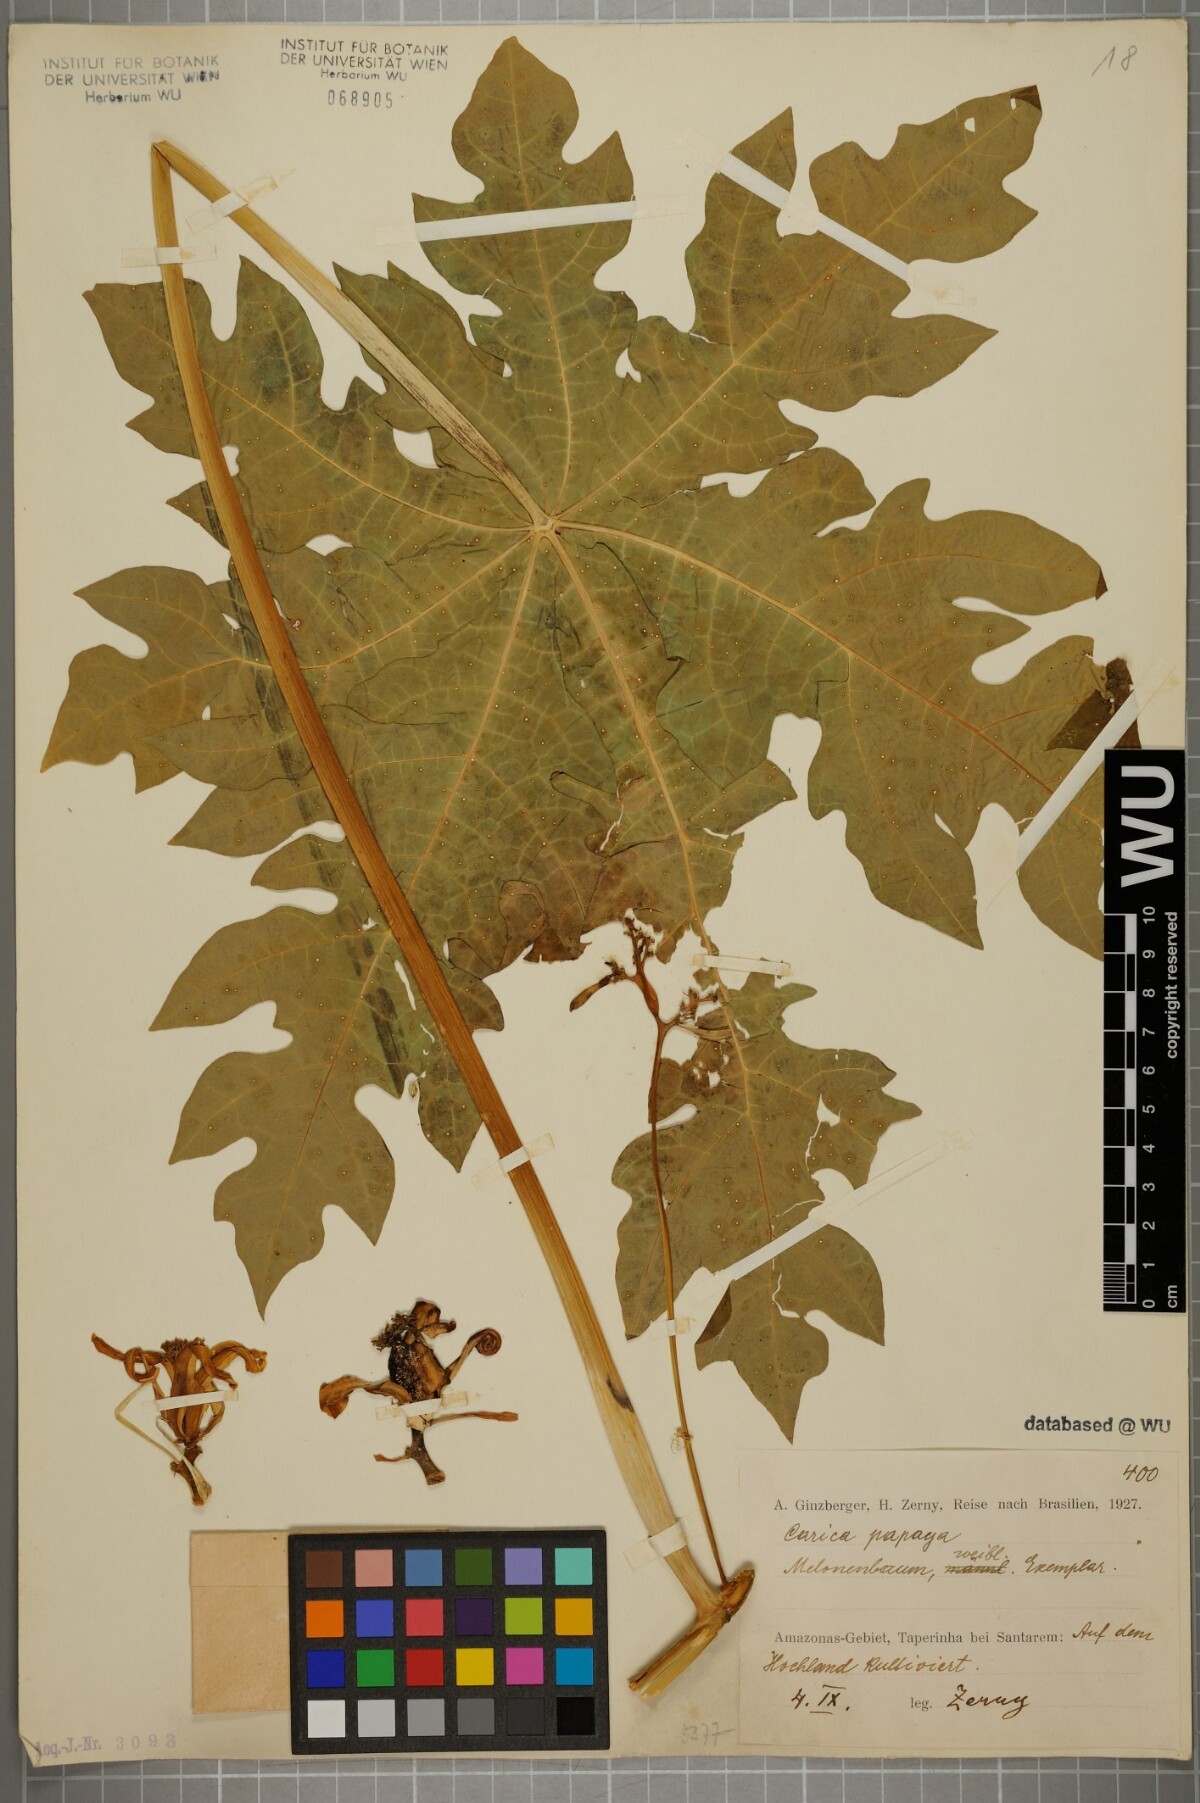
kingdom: Plantae
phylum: Tracheophyta
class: Magnoliopsida
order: Brassicales
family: Caricaceae
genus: Carica
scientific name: Carica papaya
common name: Papaya
